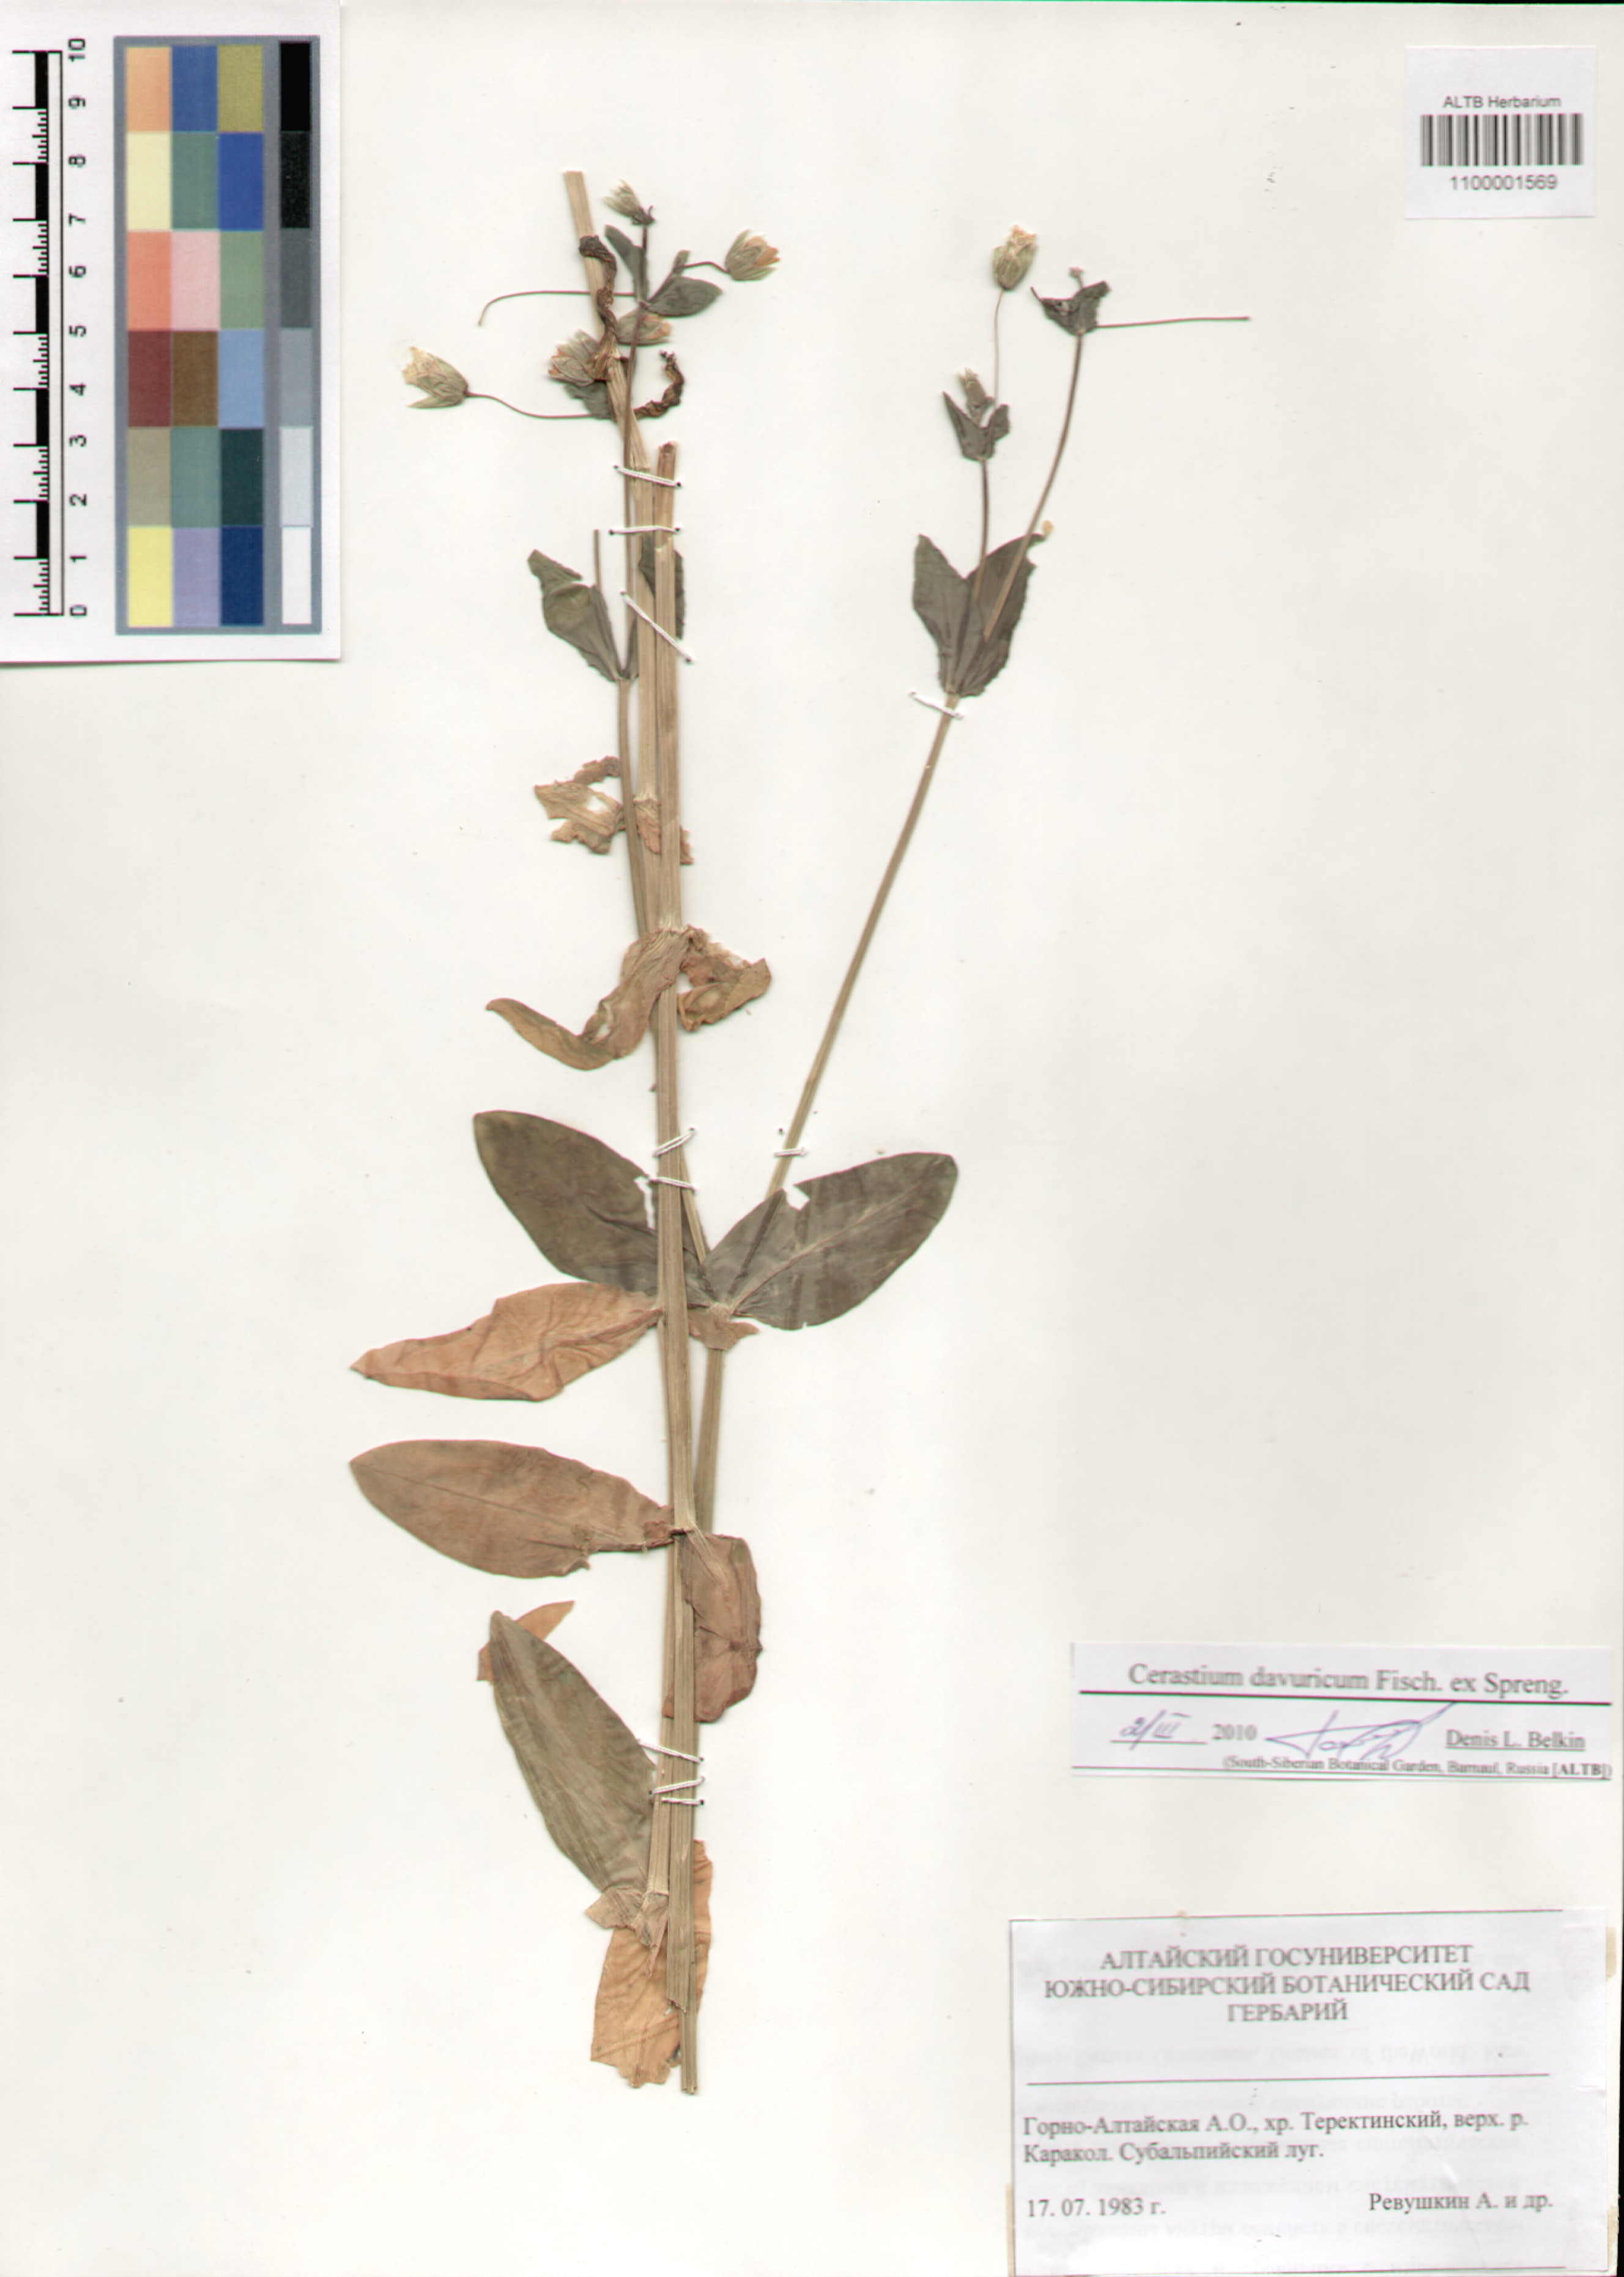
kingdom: Plantae
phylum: Tracheophyta
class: Magnoliopsida
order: Caryophyllales
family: Caryophyllaceae
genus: Dichodon
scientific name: Dichodon davuricum
